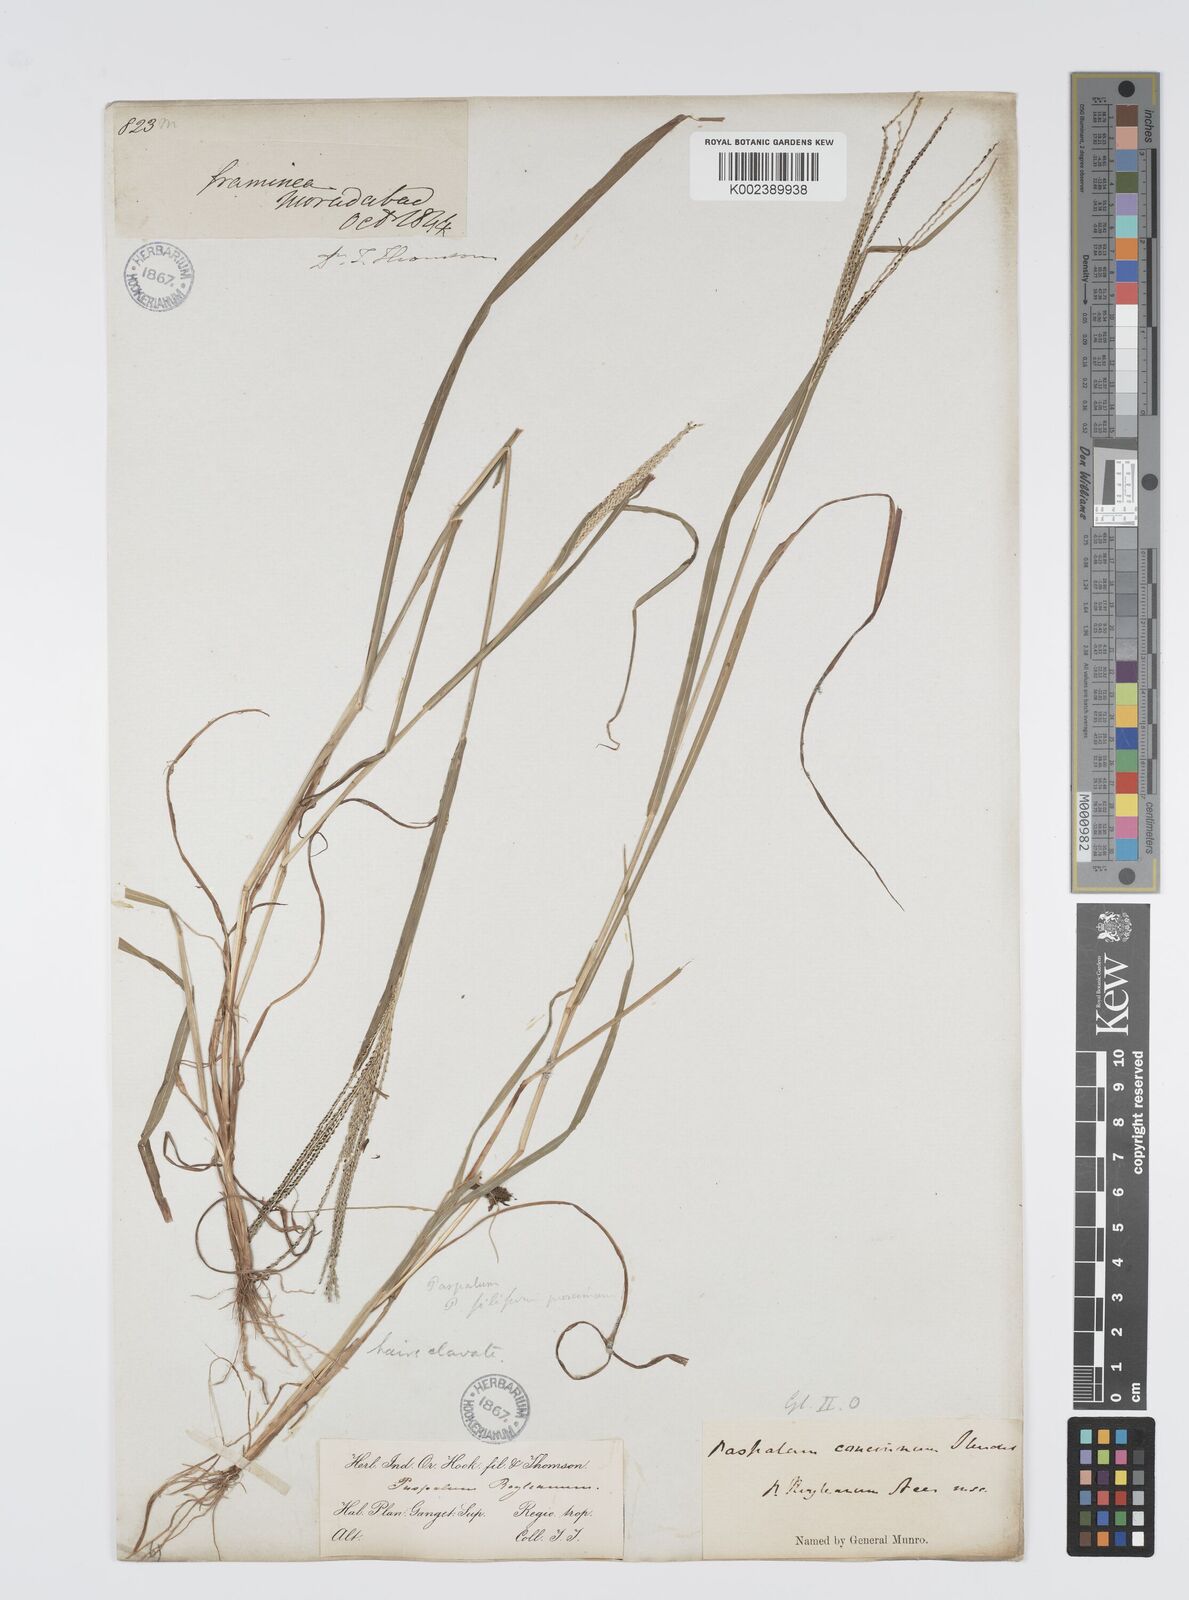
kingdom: Plantae
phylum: Tracheophyta
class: Liliopsida
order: Poales
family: Poaceae
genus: Digitaria
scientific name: Digitaria stricta
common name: Crabgrass
